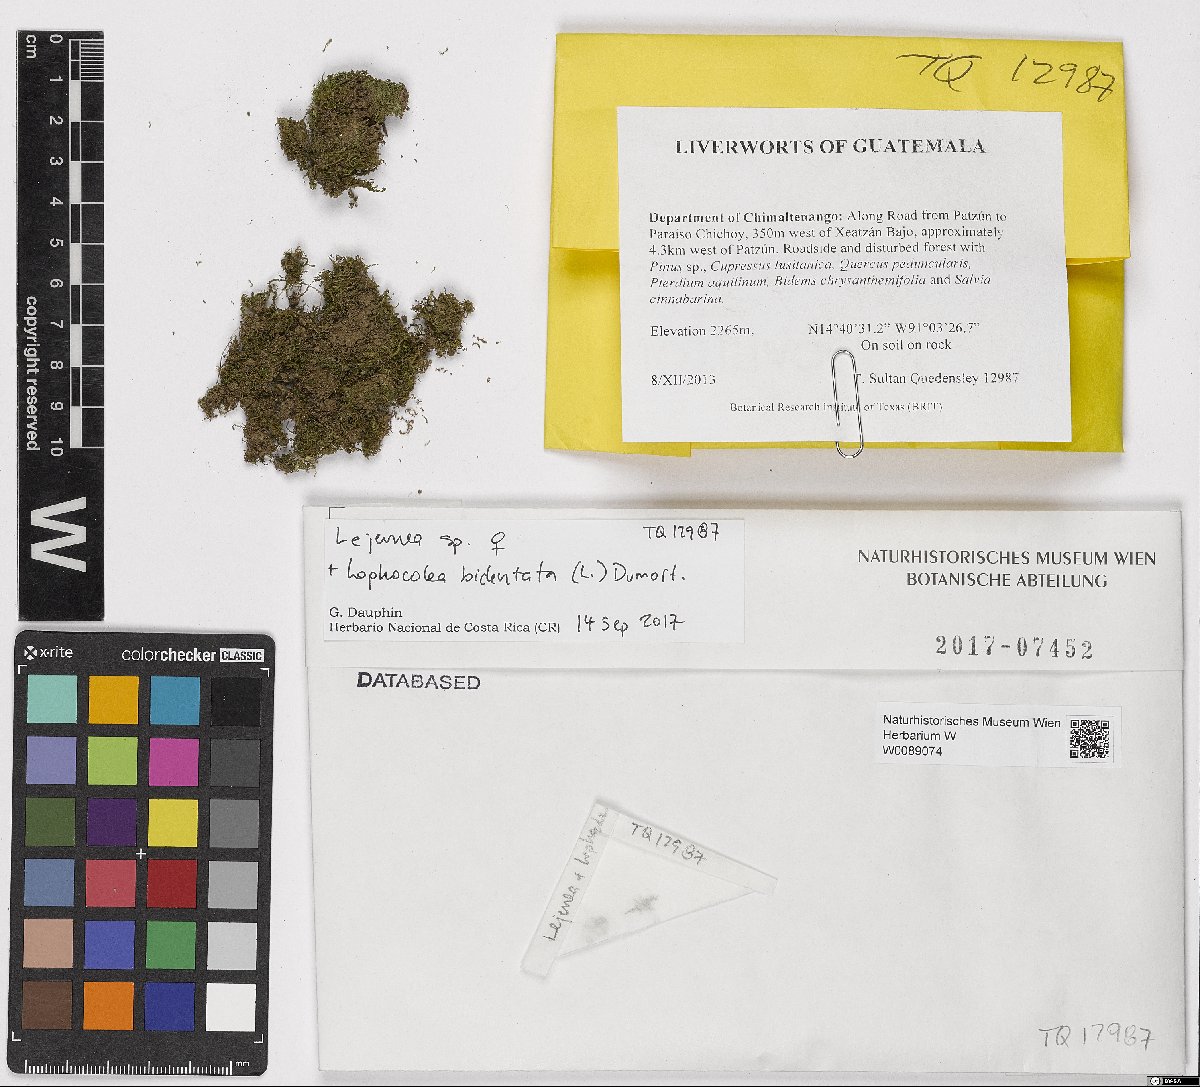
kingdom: Plantae
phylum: Marchantiophyta
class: Jungermanniopsida
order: Jungermanniales
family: Lepidoziaceae
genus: Lepidozia
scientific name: Lepidozia cupressina
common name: Rock fingerwort
